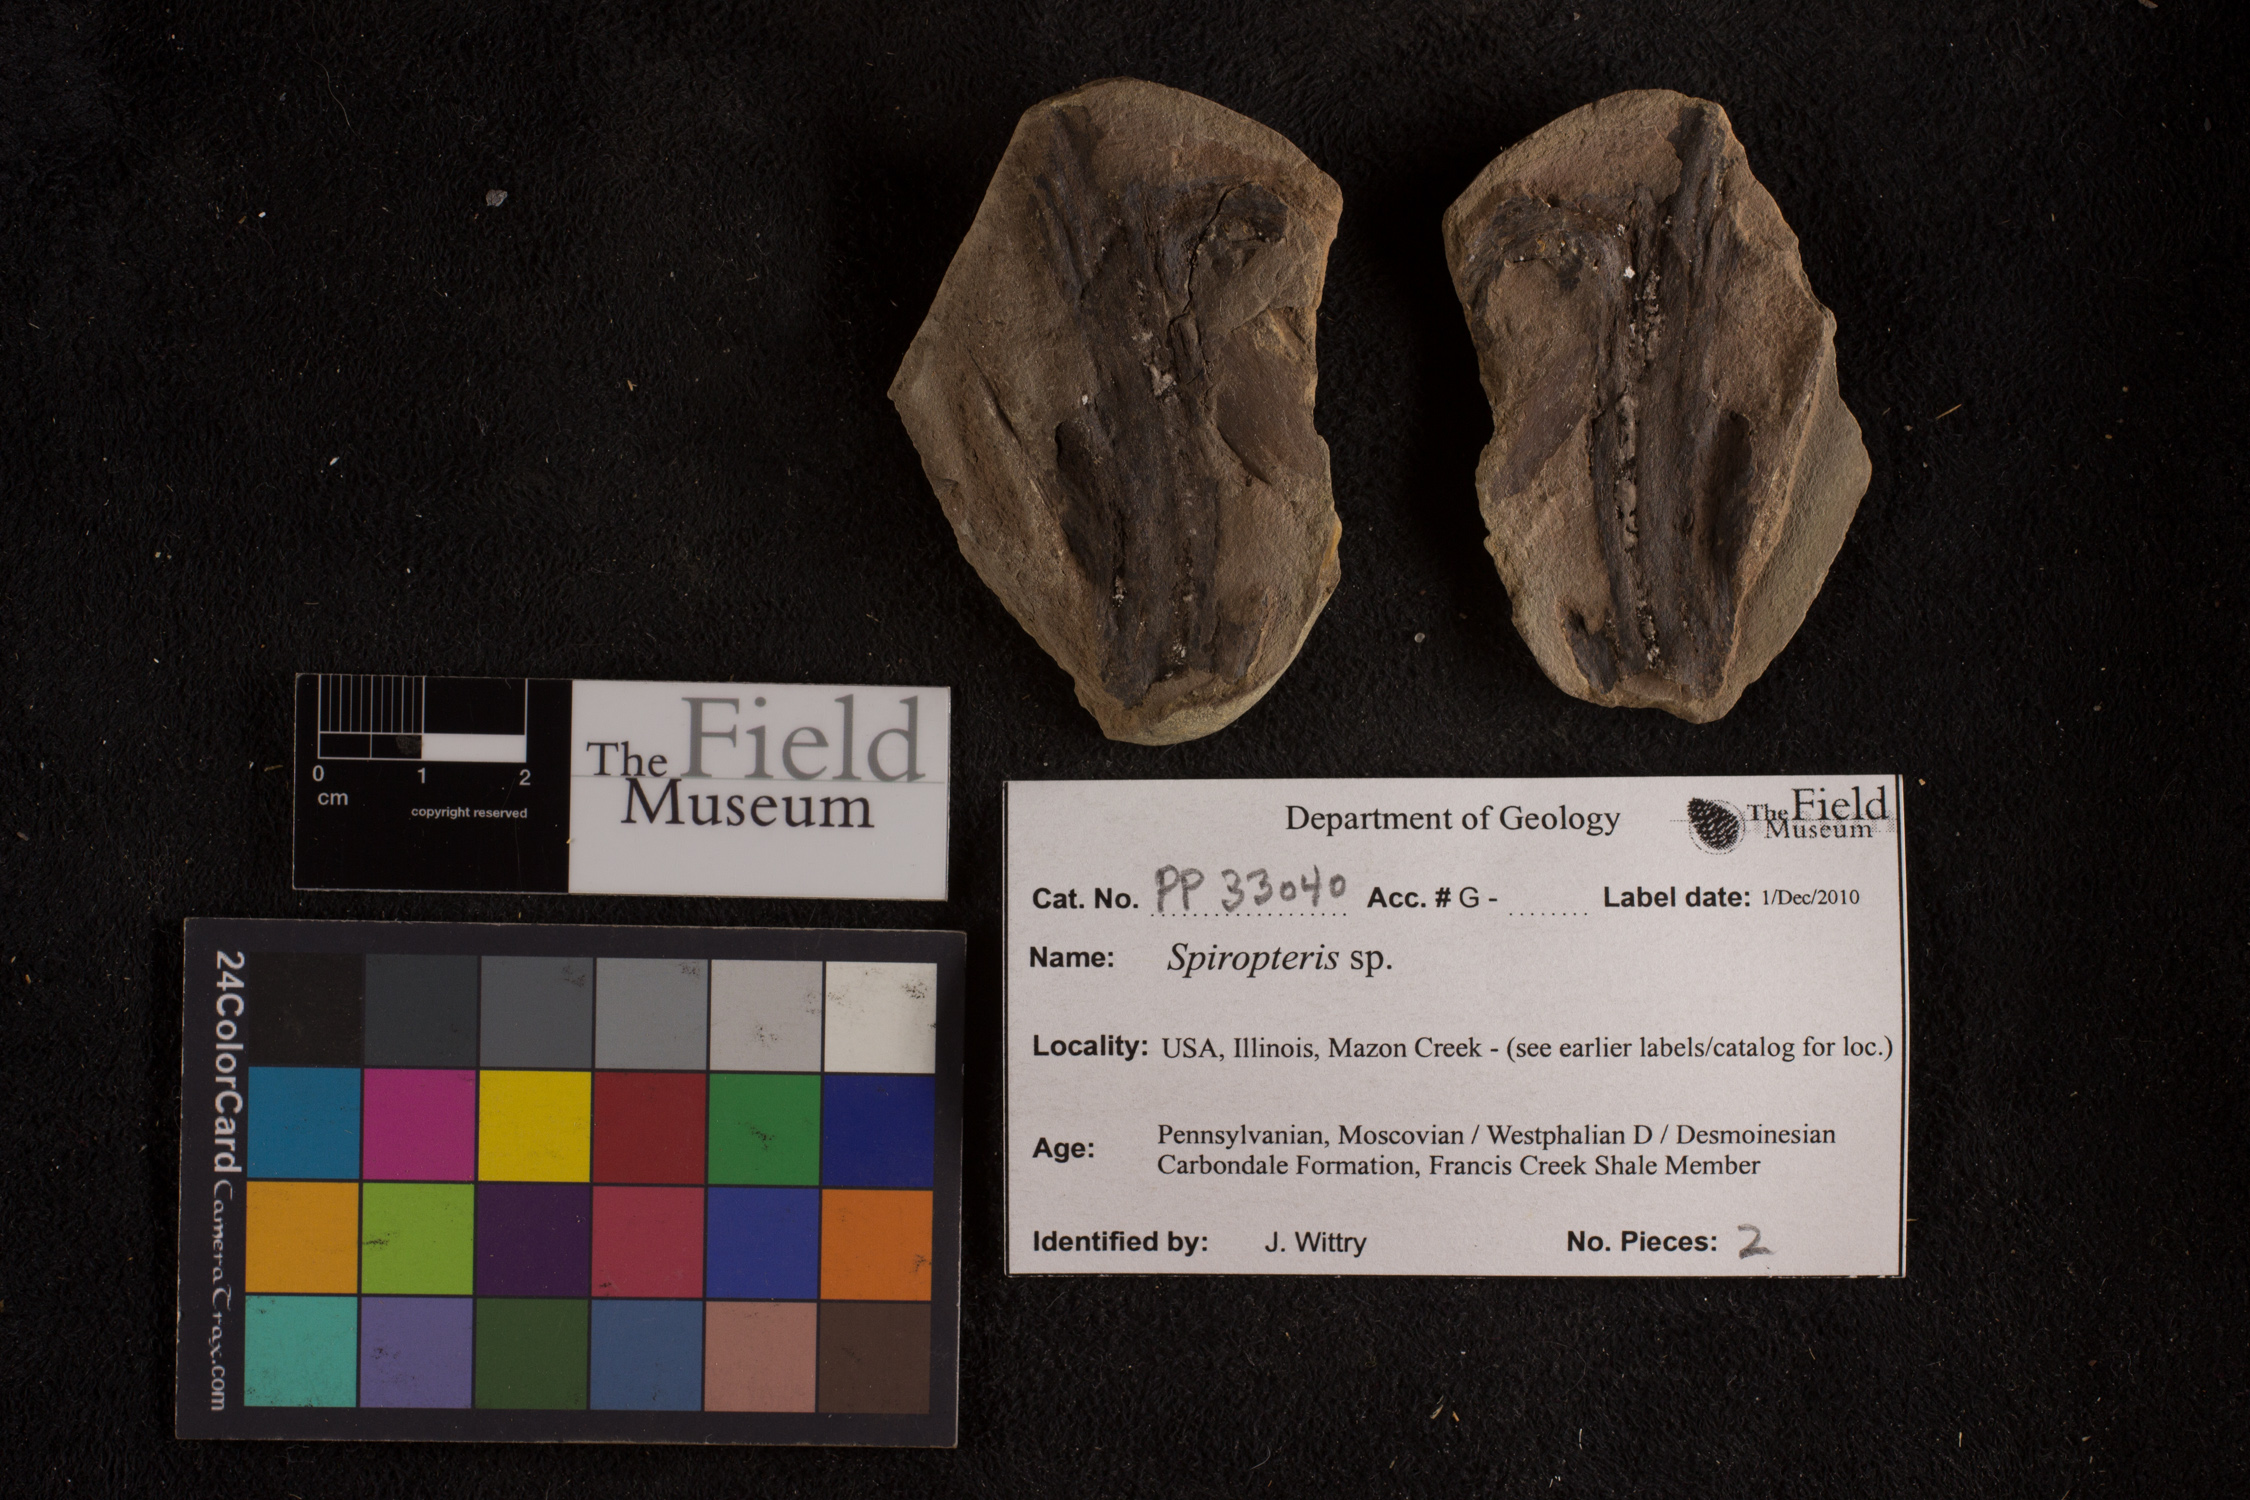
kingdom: Plantae
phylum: Tracheophyta
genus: Spiropteris
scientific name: Spiropteris
